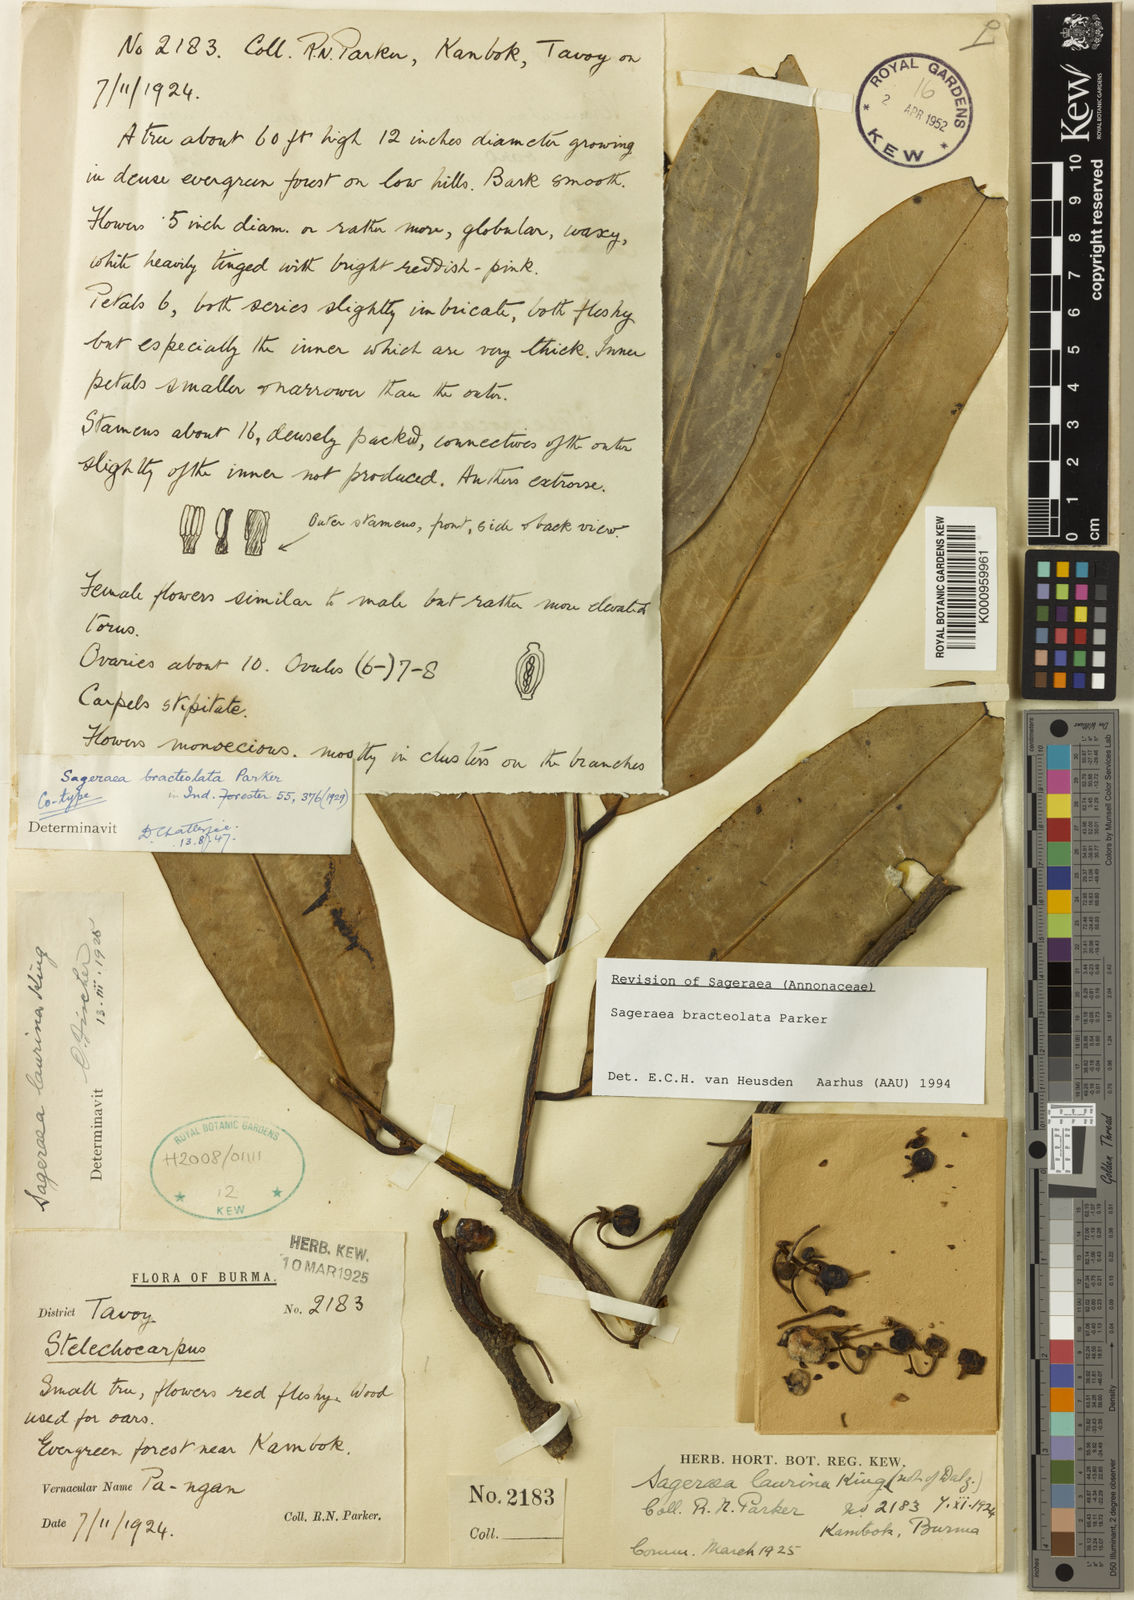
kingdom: Plantae
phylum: Tracheophyta
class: Magnoliopsida
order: Magnoliales
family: Annonaceae
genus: Sageraea
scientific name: Sageraea bracteolata
